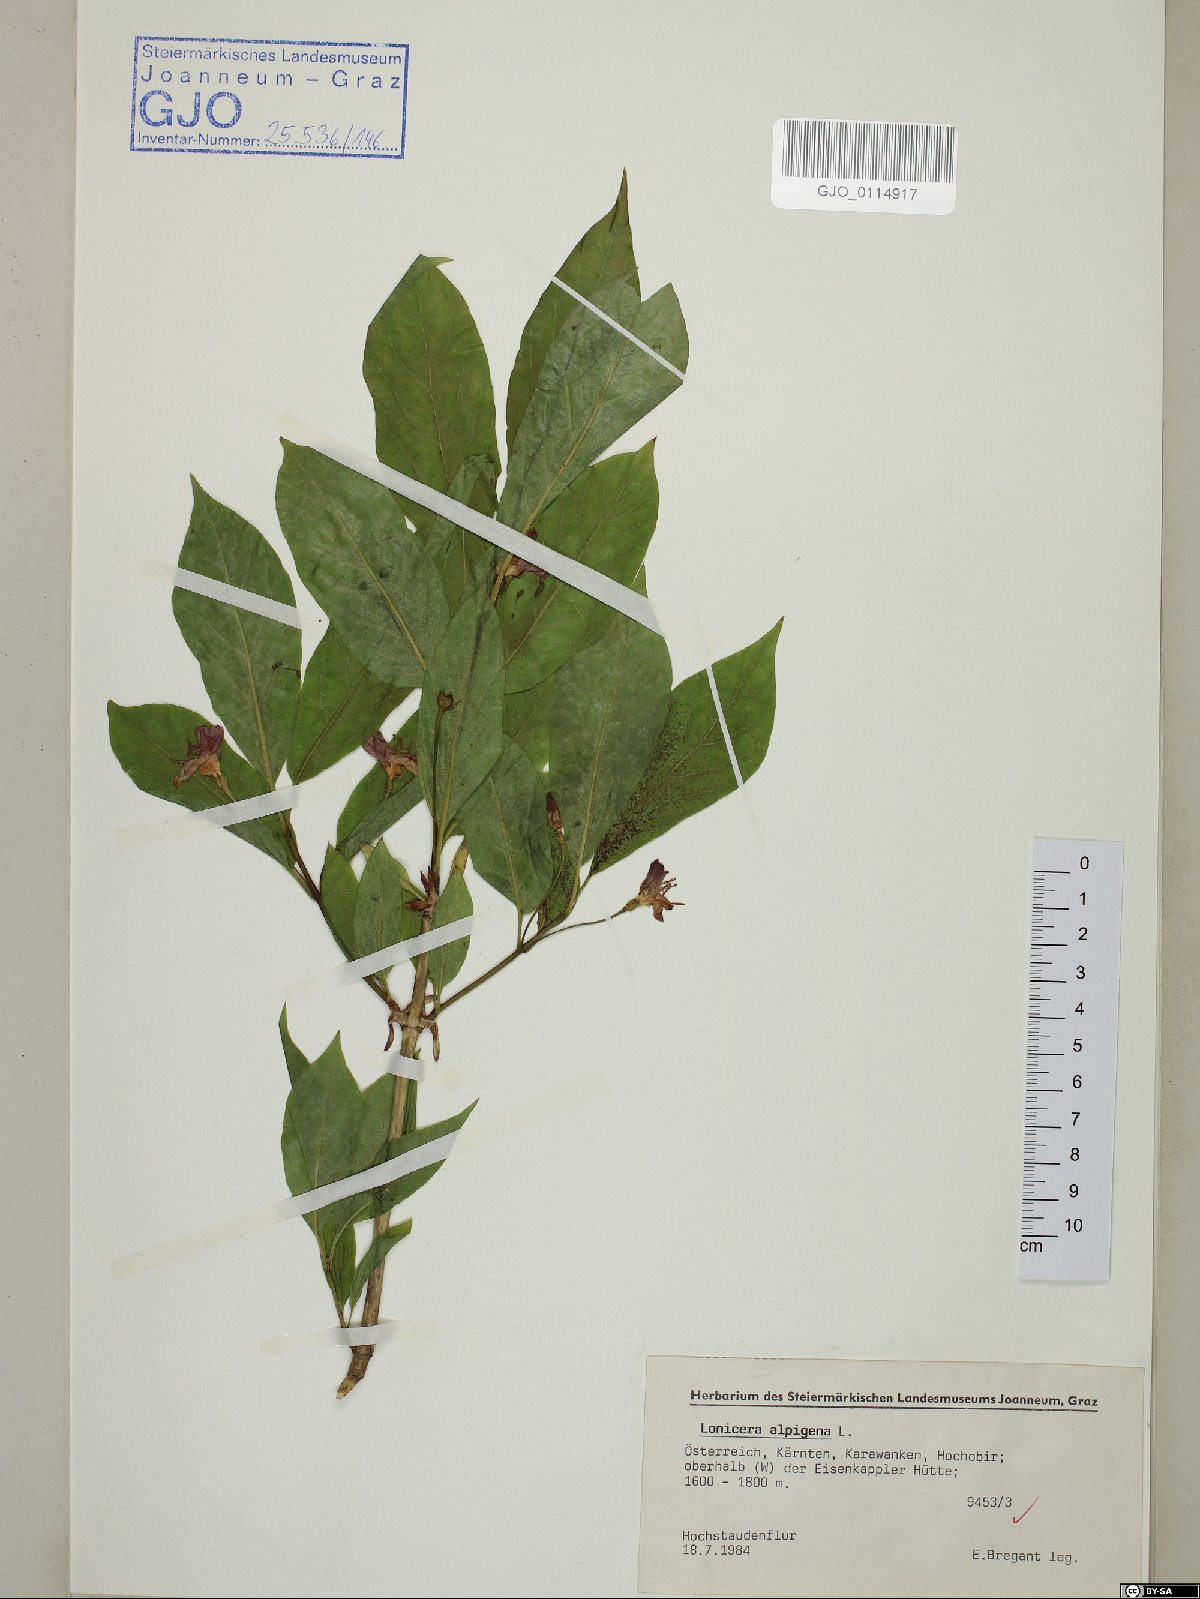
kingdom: Plantae
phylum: Tracheophyta
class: Magnoliopsida
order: Dipsacales
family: Caprifoliaceae
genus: Lonicera
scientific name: Lonicera alpigena
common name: Alpine honeysuckle
